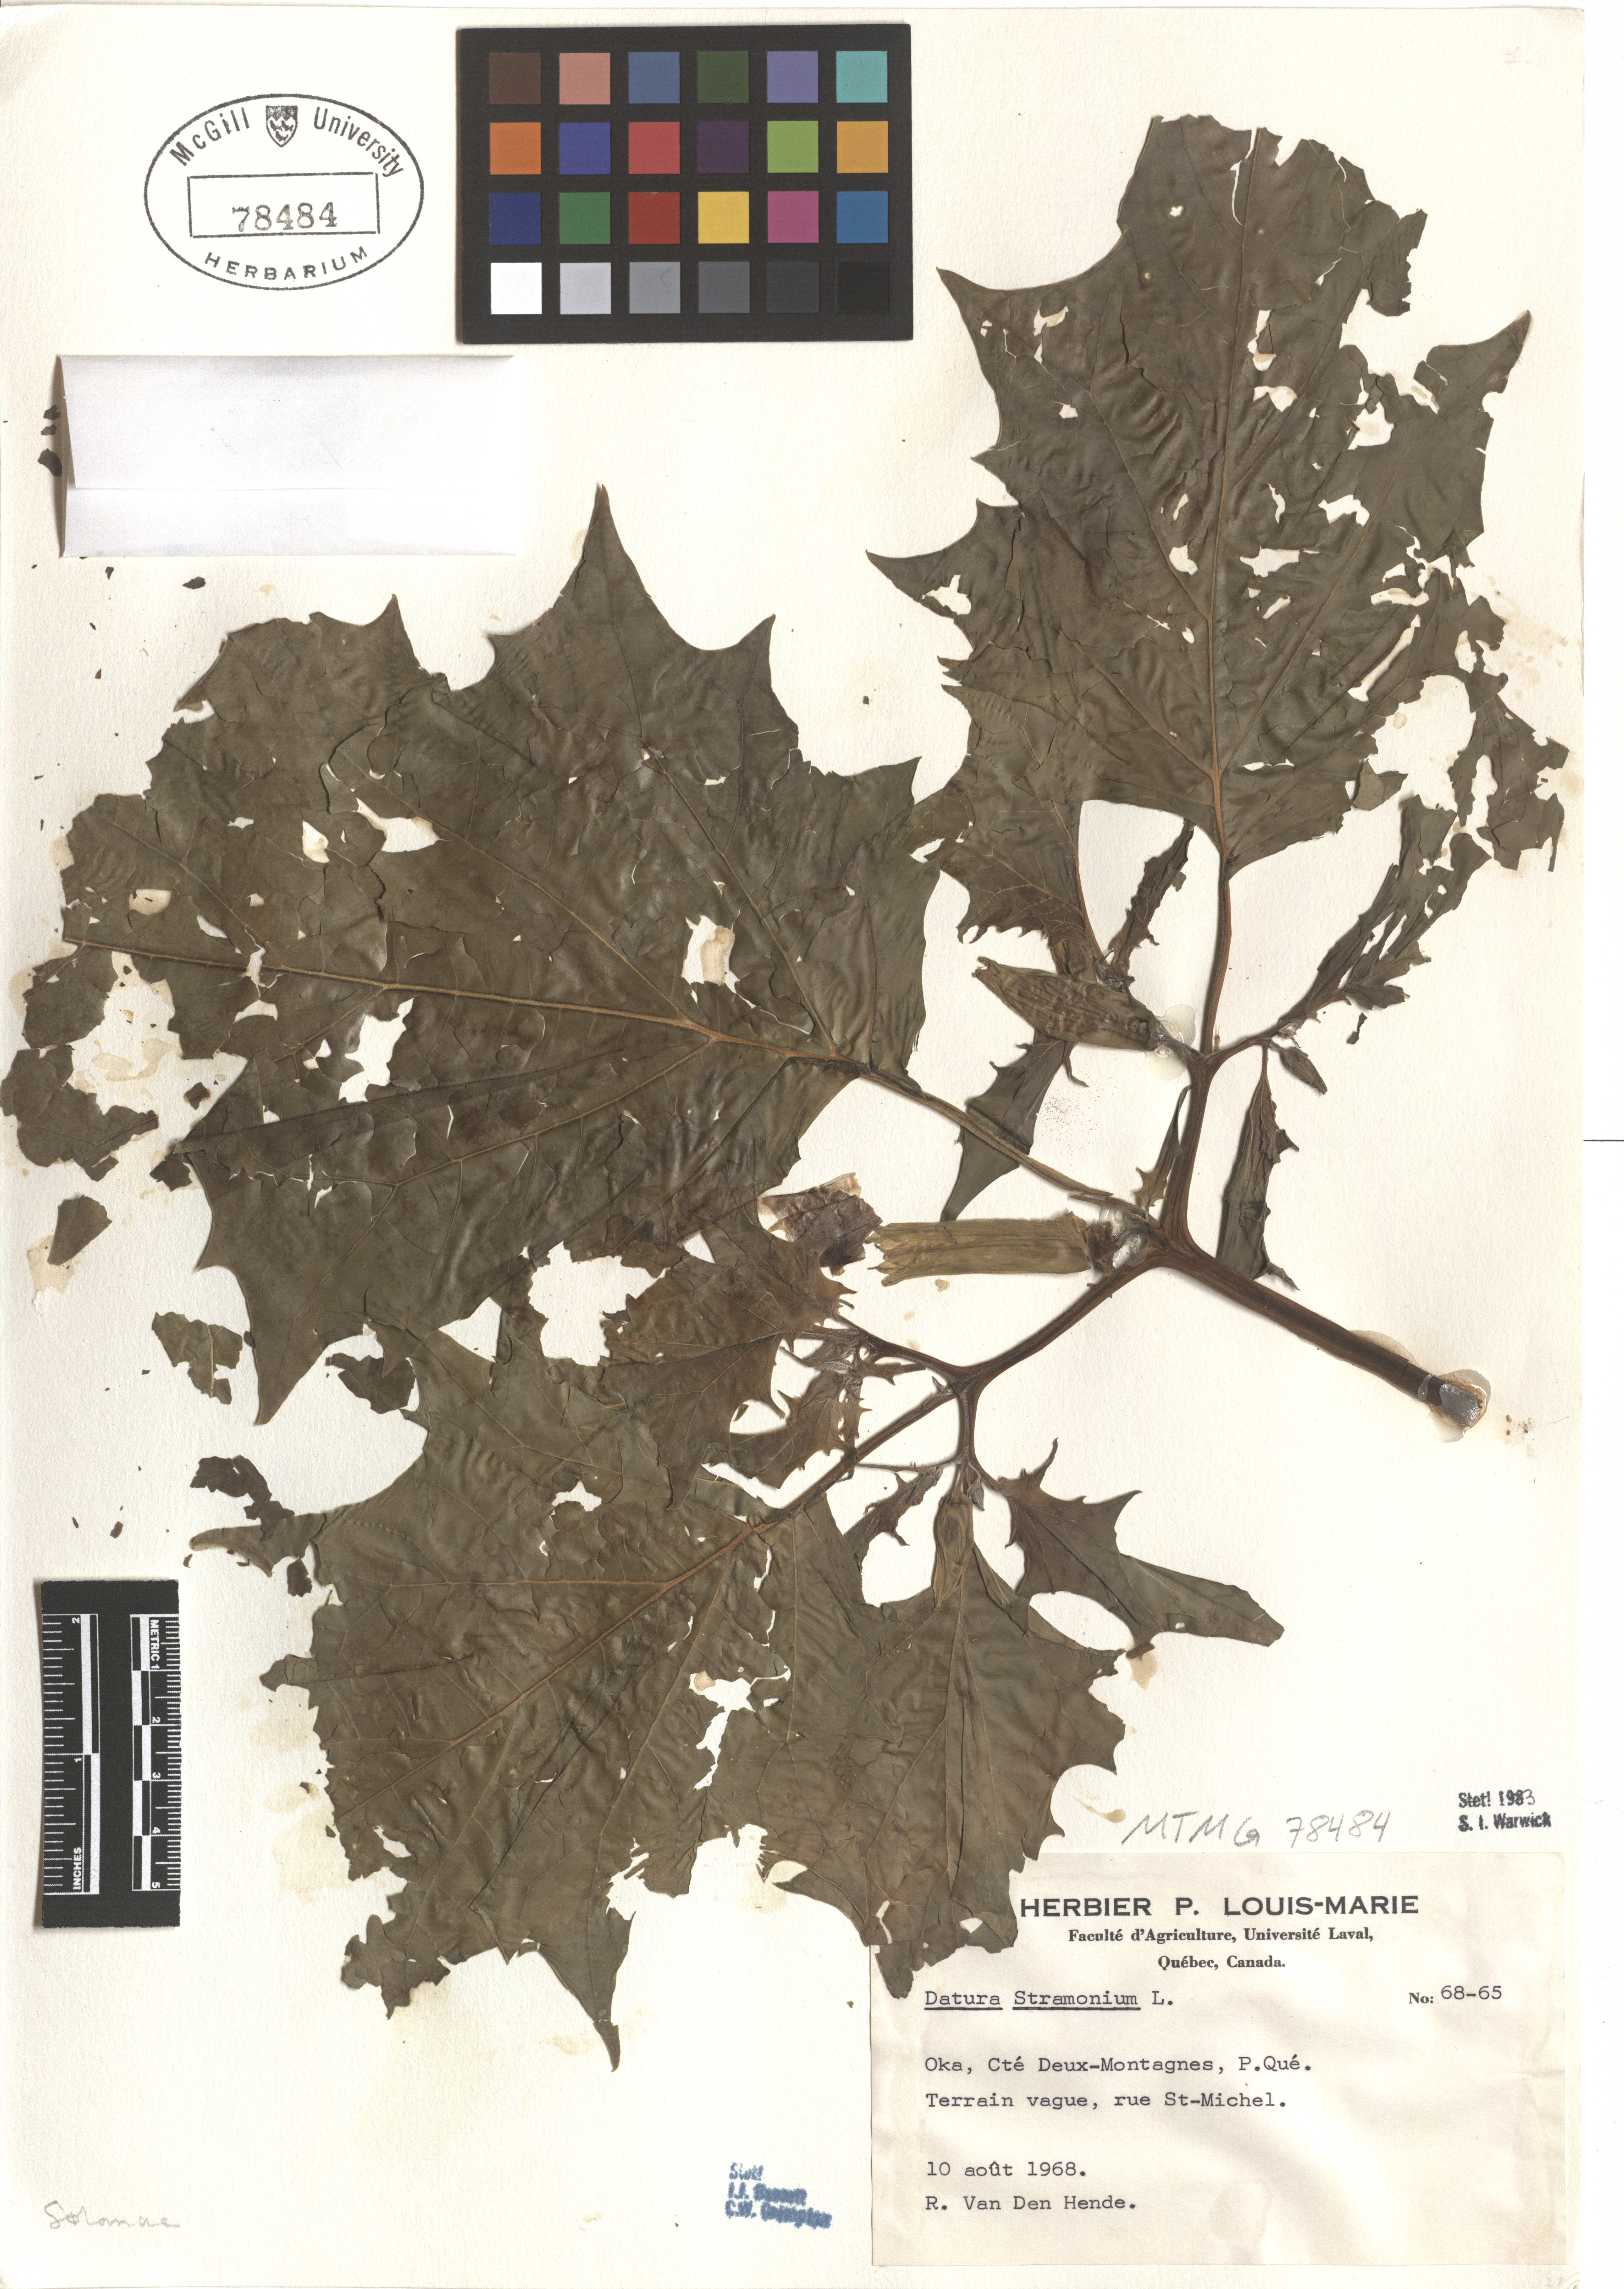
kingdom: Plantae
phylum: Tracheophyta
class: Magnoliopsida
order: Solanales
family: Solanaceae
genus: Datura
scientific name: Datura stramonium
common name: Thorn-apple
